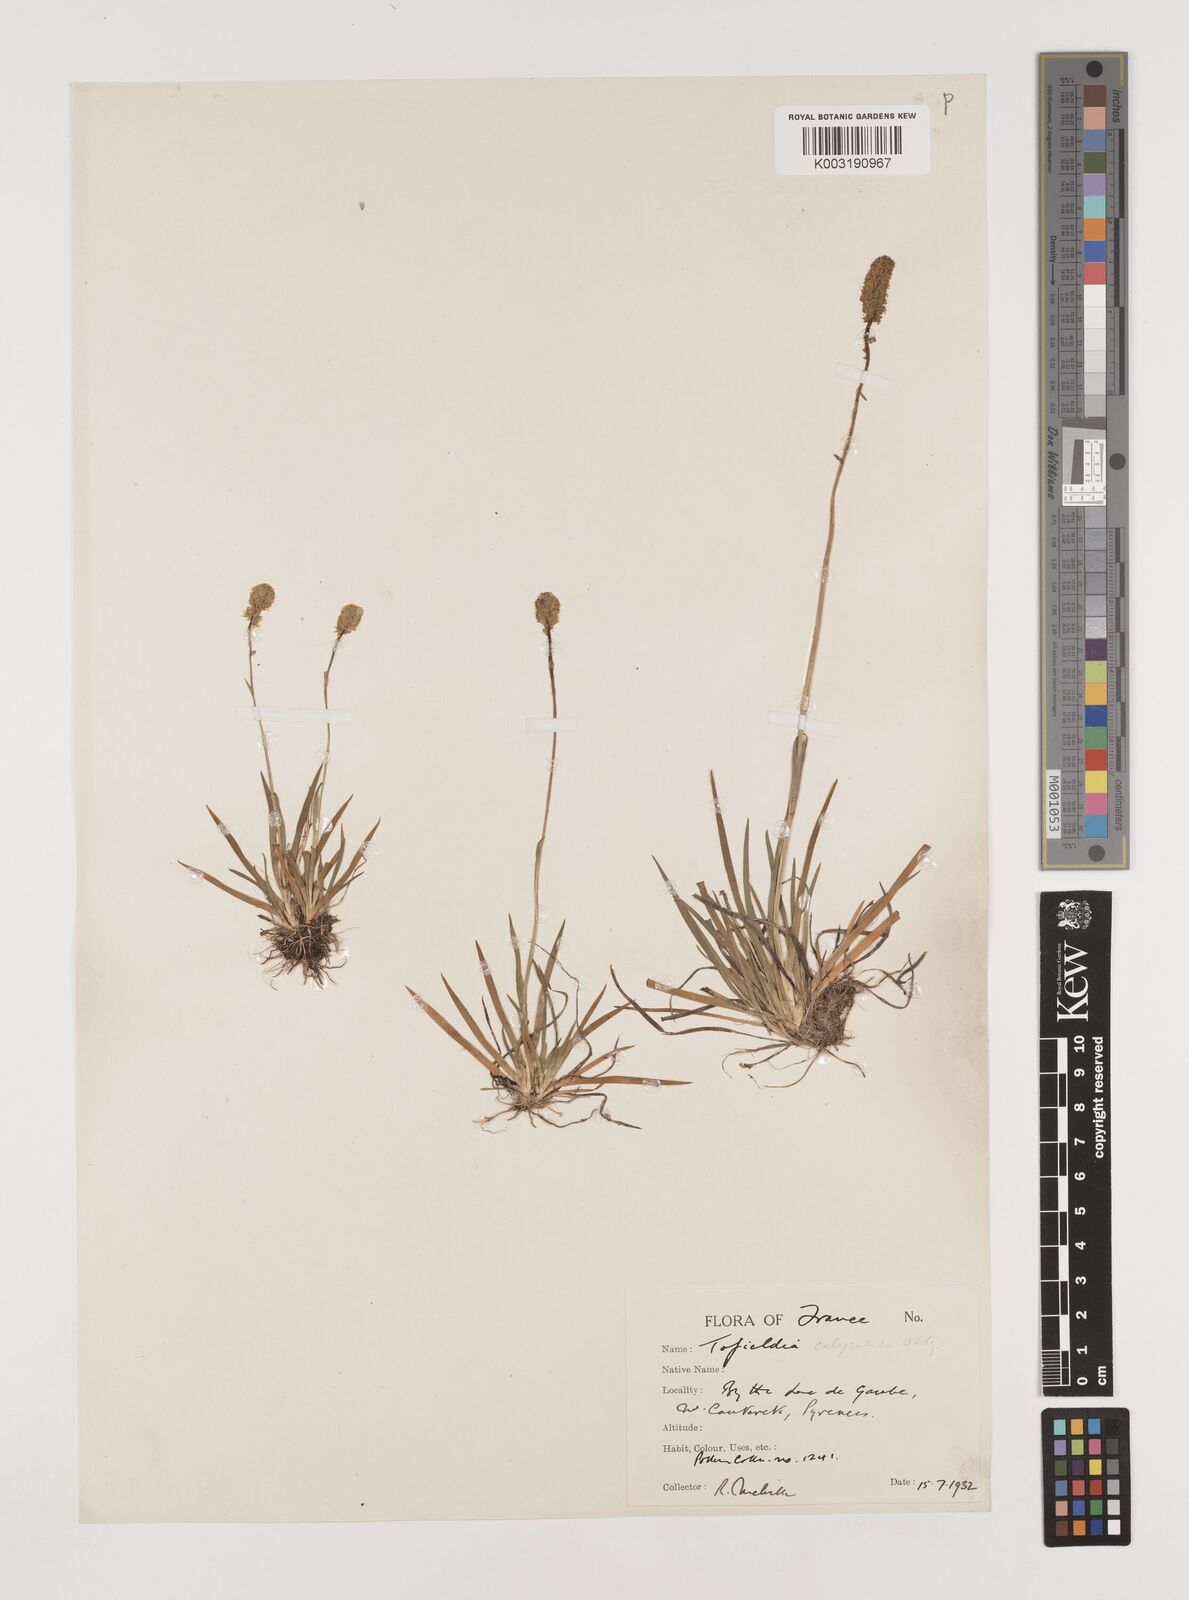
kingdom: Plantae
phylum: Tracheophyta
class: Liliopsida
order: Alismatales
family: Tofieldiaceae
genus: Tofieldia
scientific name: Tofieldia calyculata
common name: German-asphodel
